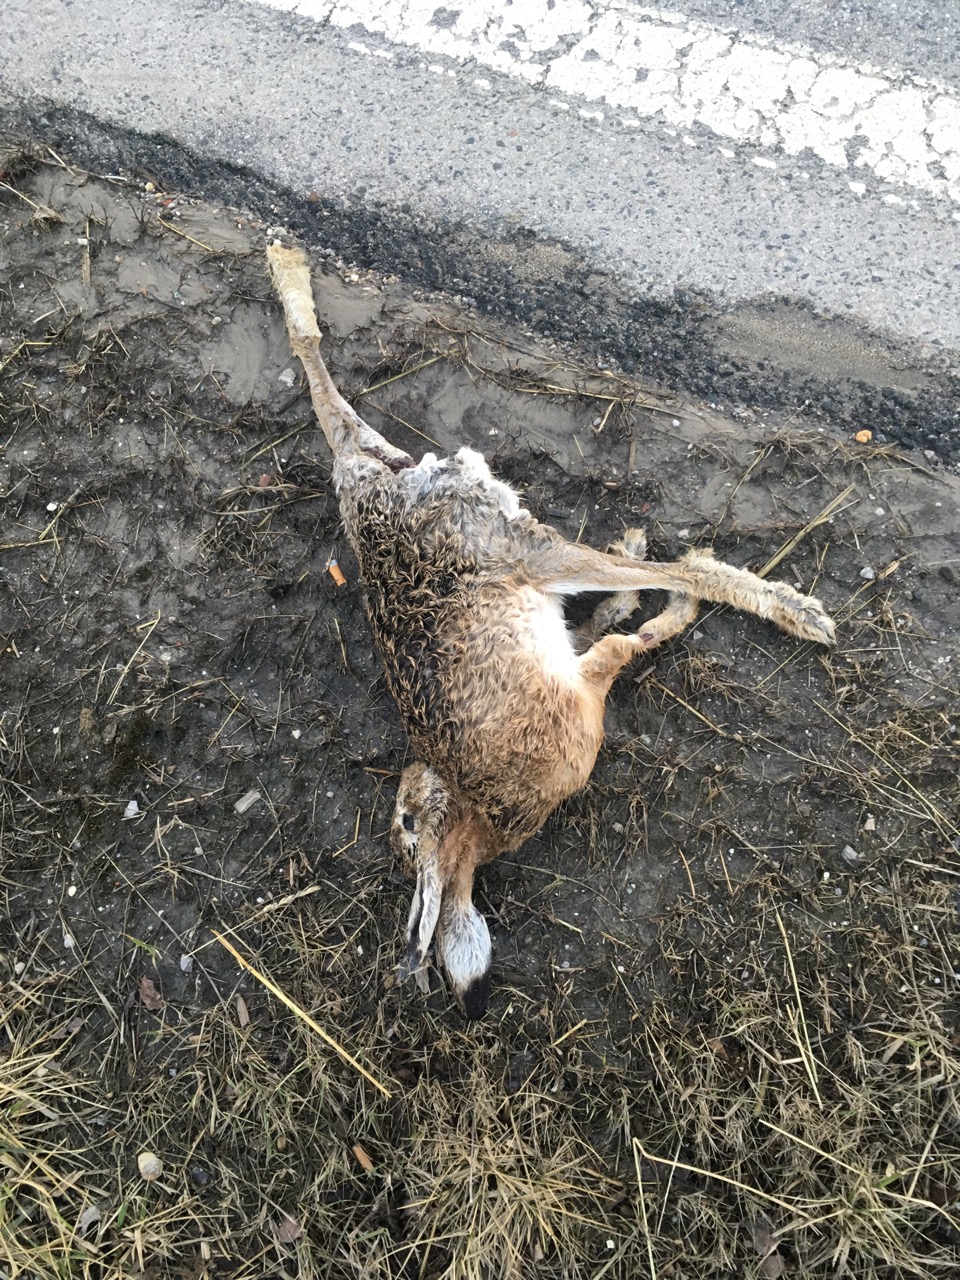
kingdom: Animalia
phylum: Chordata
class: Mammalia
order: Lagomorpha
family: Leporidae
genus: Lepus
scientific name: Lepus europaeus
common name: European hare
